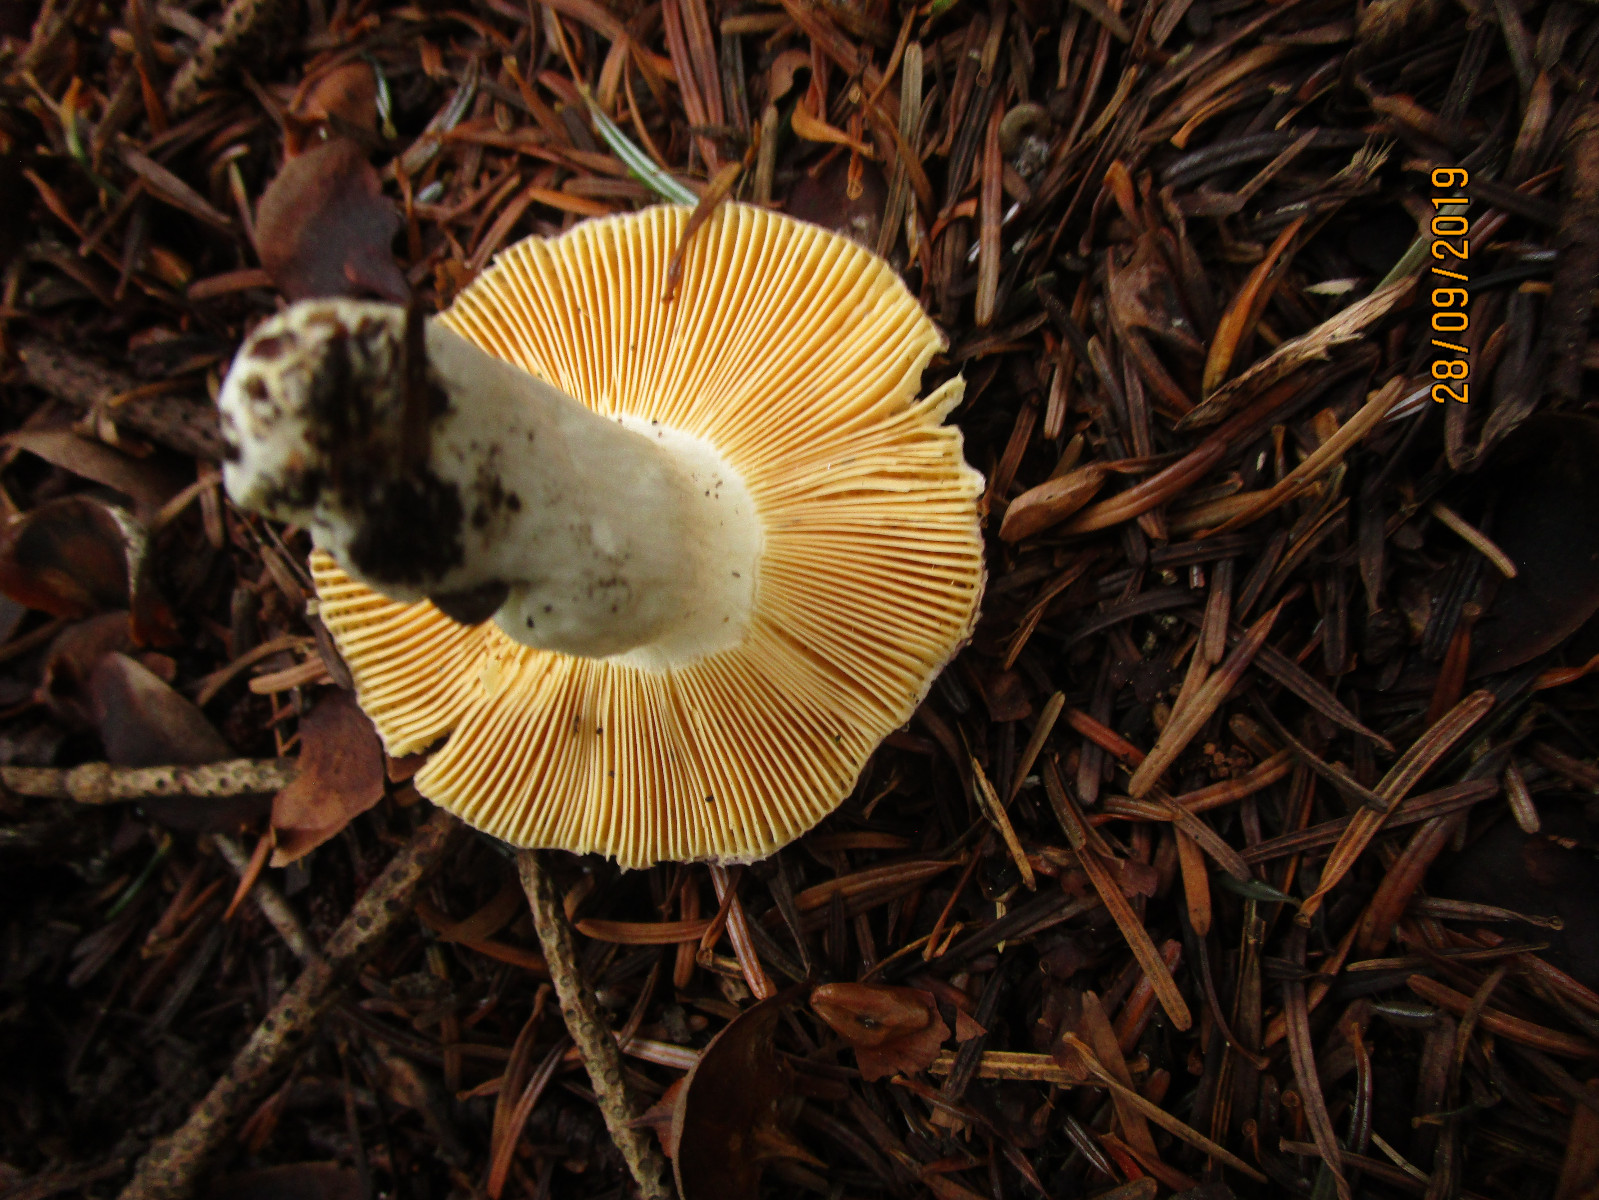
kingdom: Fungi
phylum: Basidiomycota
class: Agaricomycetes
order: Russulales
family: Russulaceae
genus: Russula
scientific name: Russula integra
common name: mandel-skørhat
